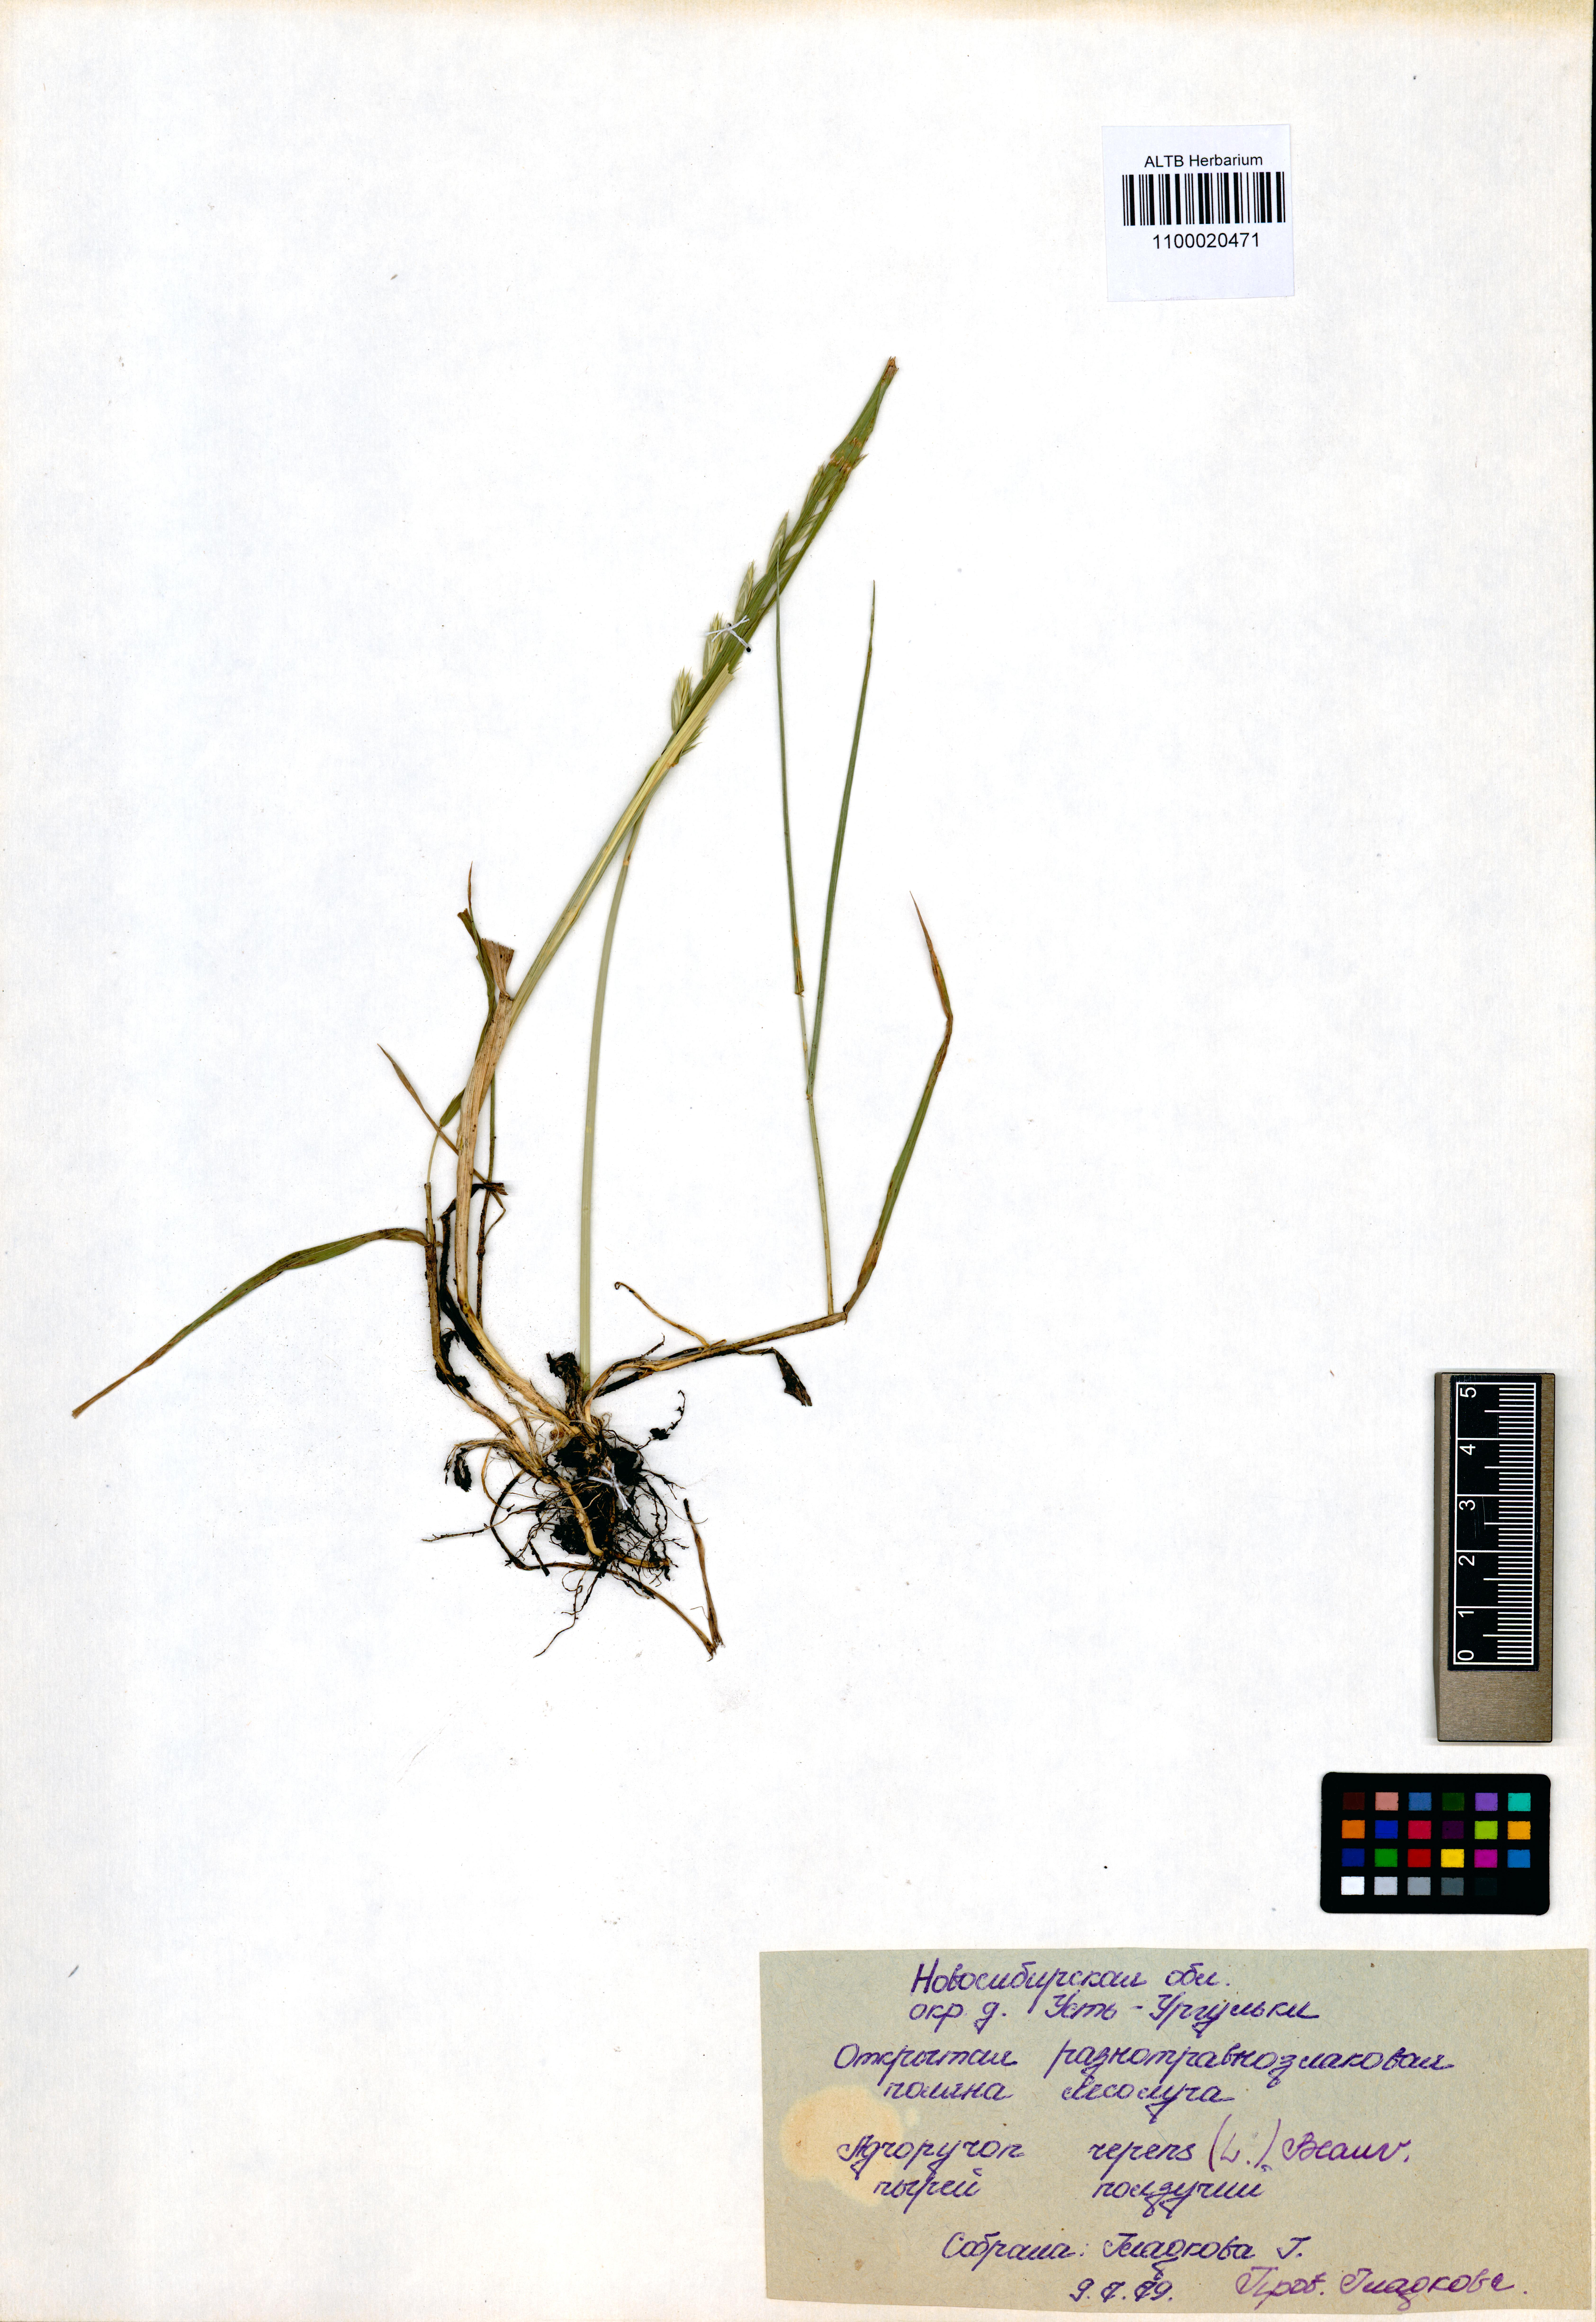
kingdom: Plantae
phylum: Tracheophyta
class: Liliopsida
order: Poales
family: Poaceae
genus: Elymus
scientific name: Elymus repens
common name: Quackgrass
